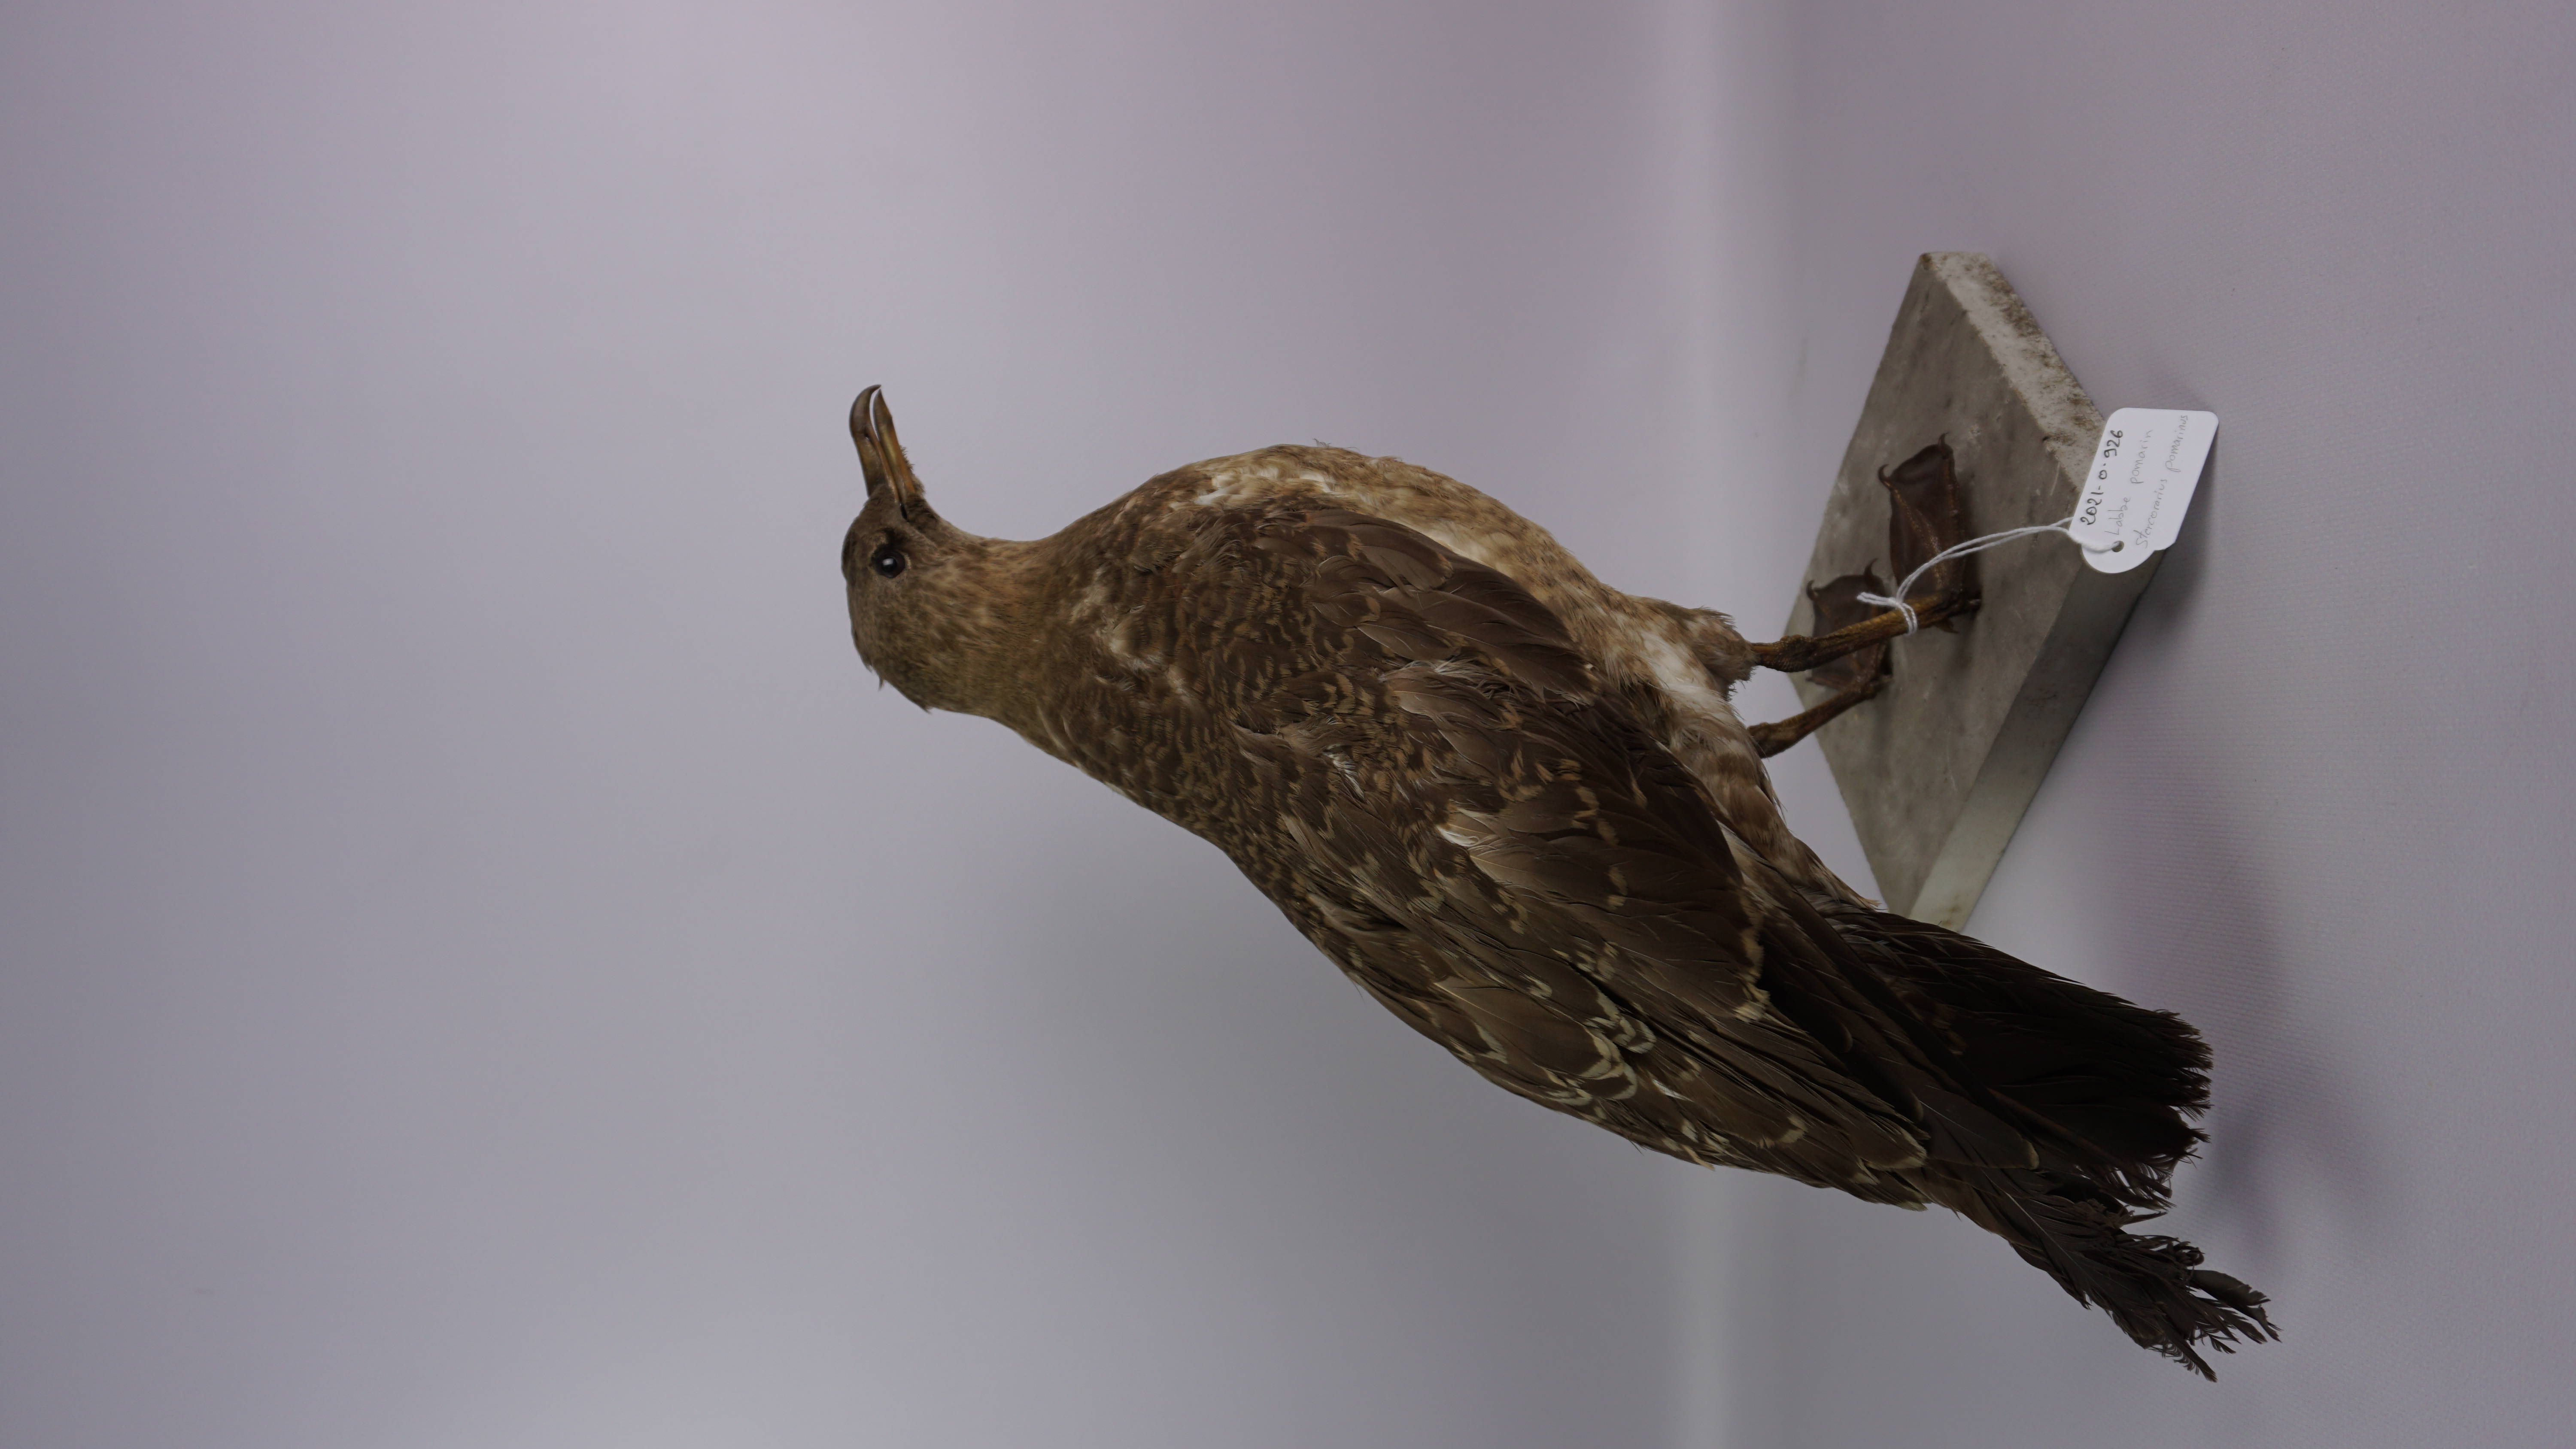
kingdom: Animalia
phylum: Chordata
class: Aves
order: Charadriiformes
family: Stercorariidae
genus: Stercorarius
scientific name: Stercorarius pomarinus
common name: Pomarine jaeger
